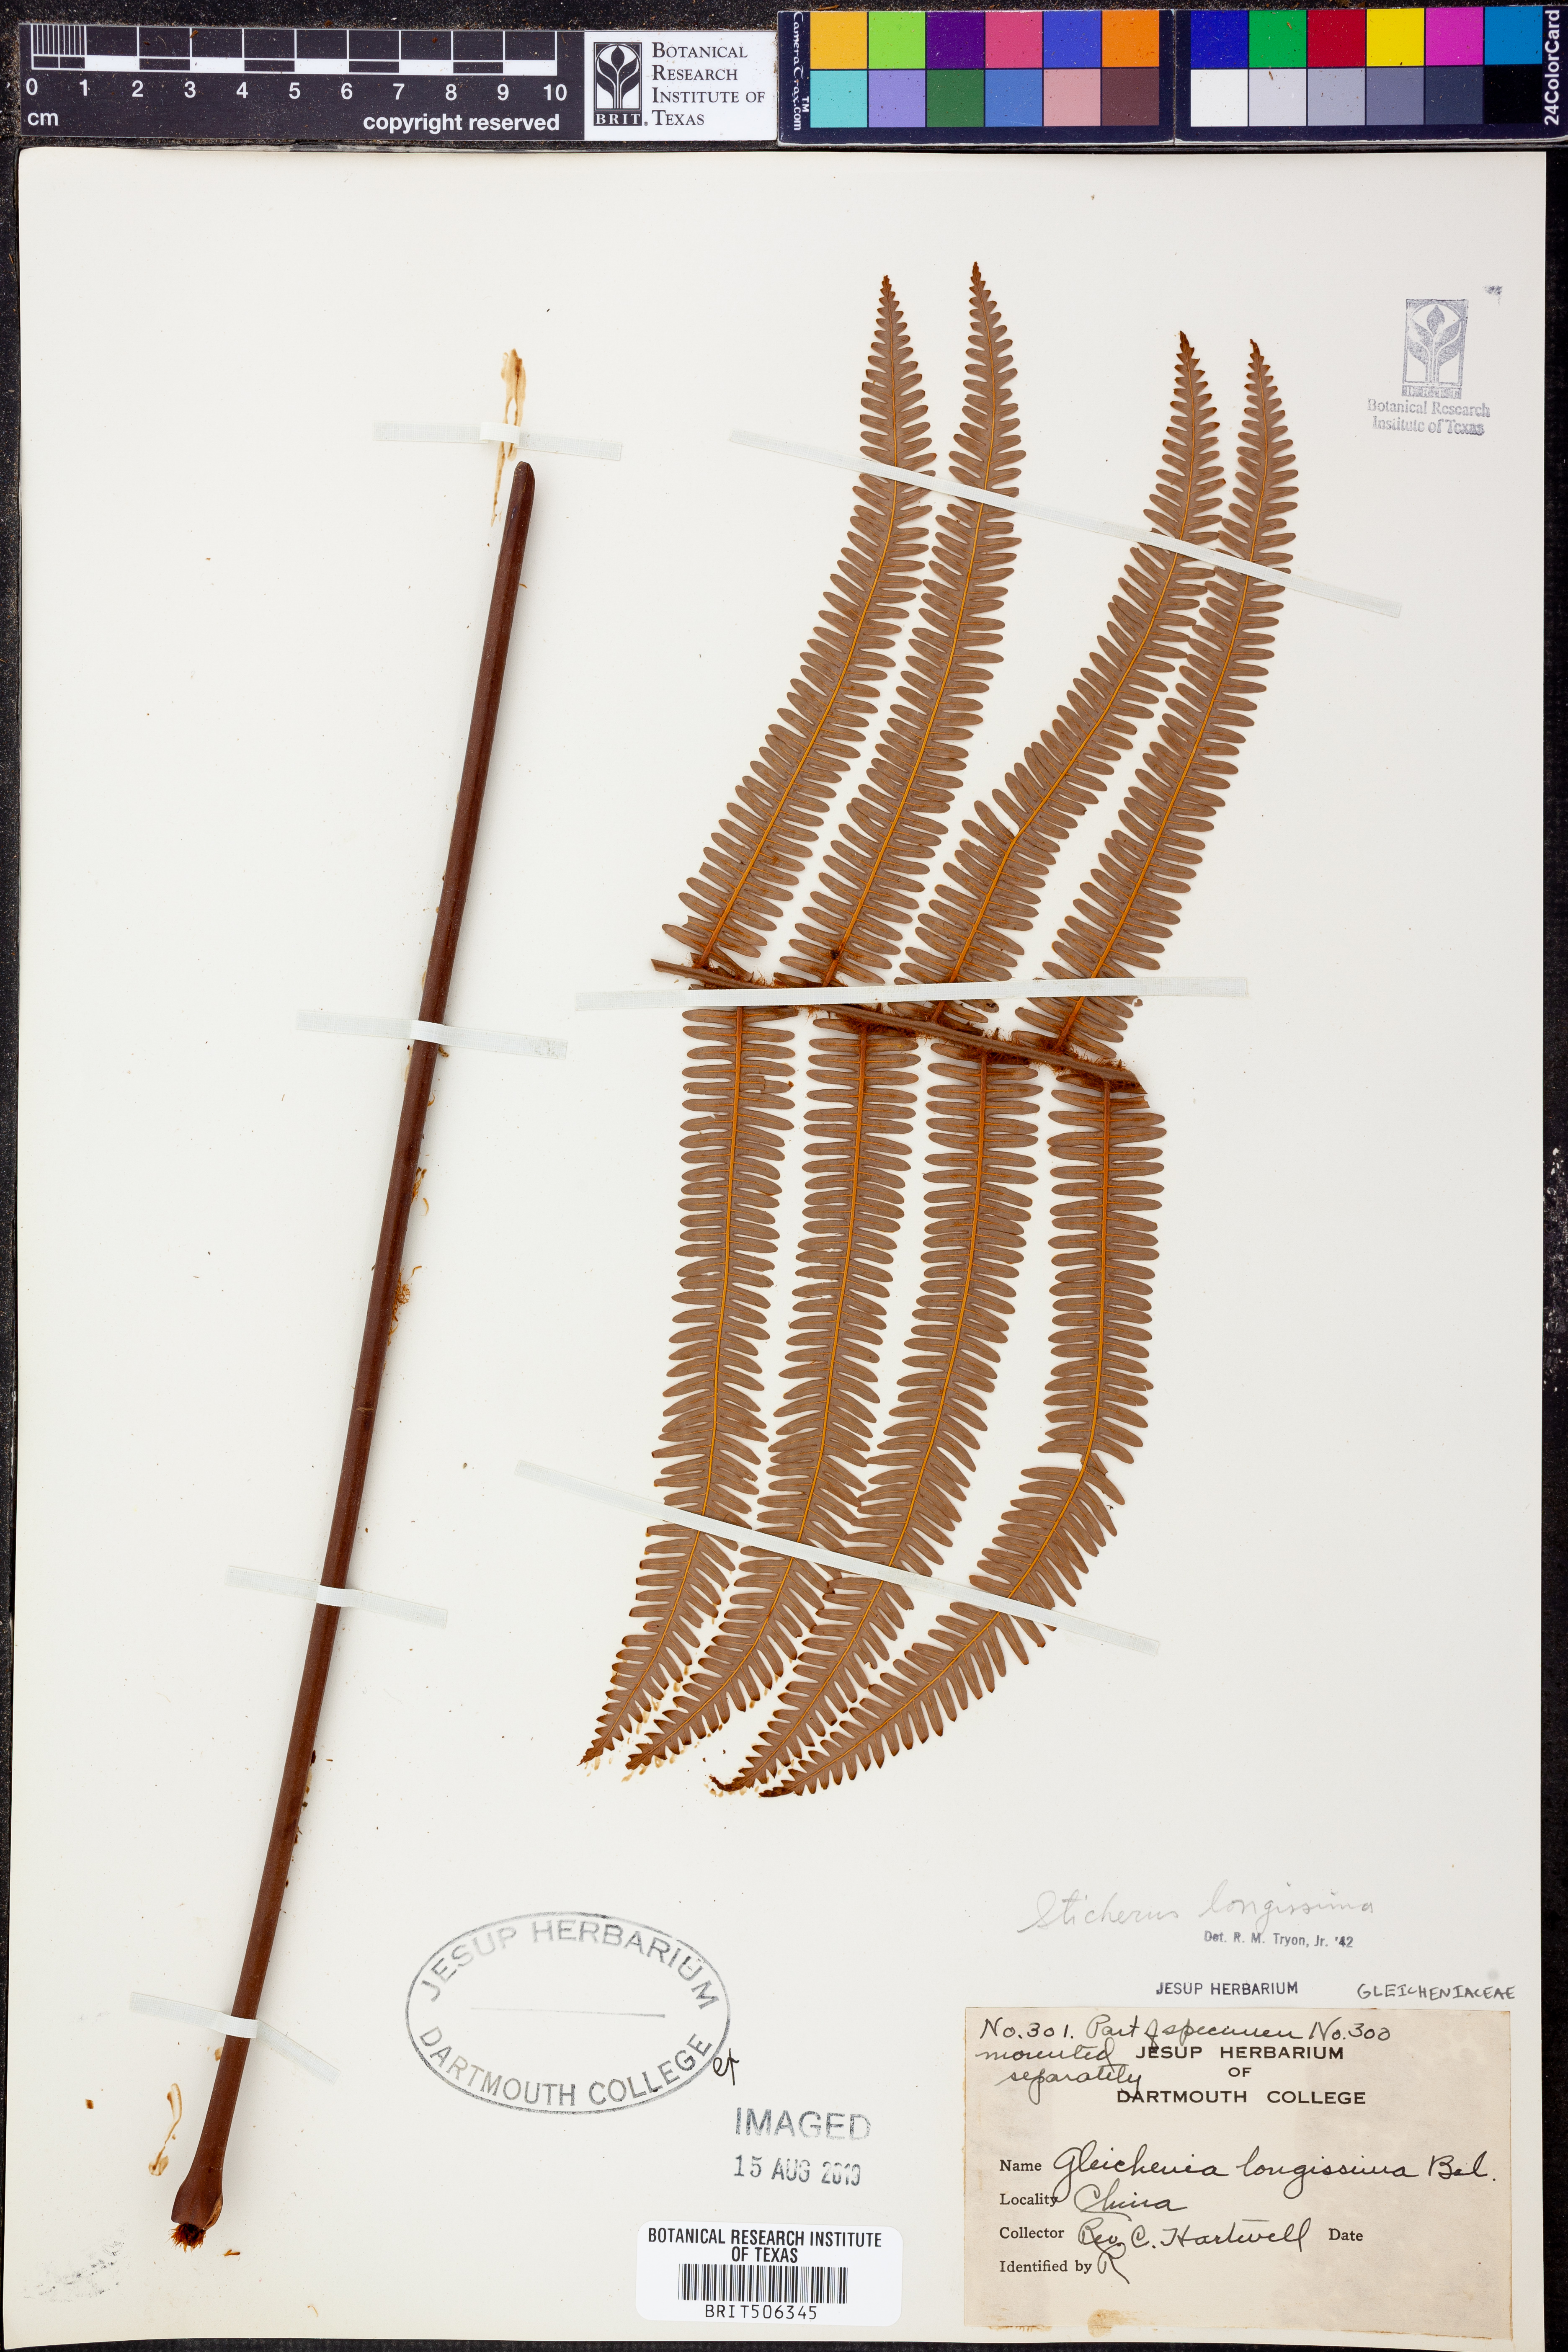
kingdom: Plantae
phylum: Tracheophyta
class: Polypodiopsida
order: Gleicheniales
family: Gleicheniaceae
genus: Sticherus
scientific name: Sticherus
